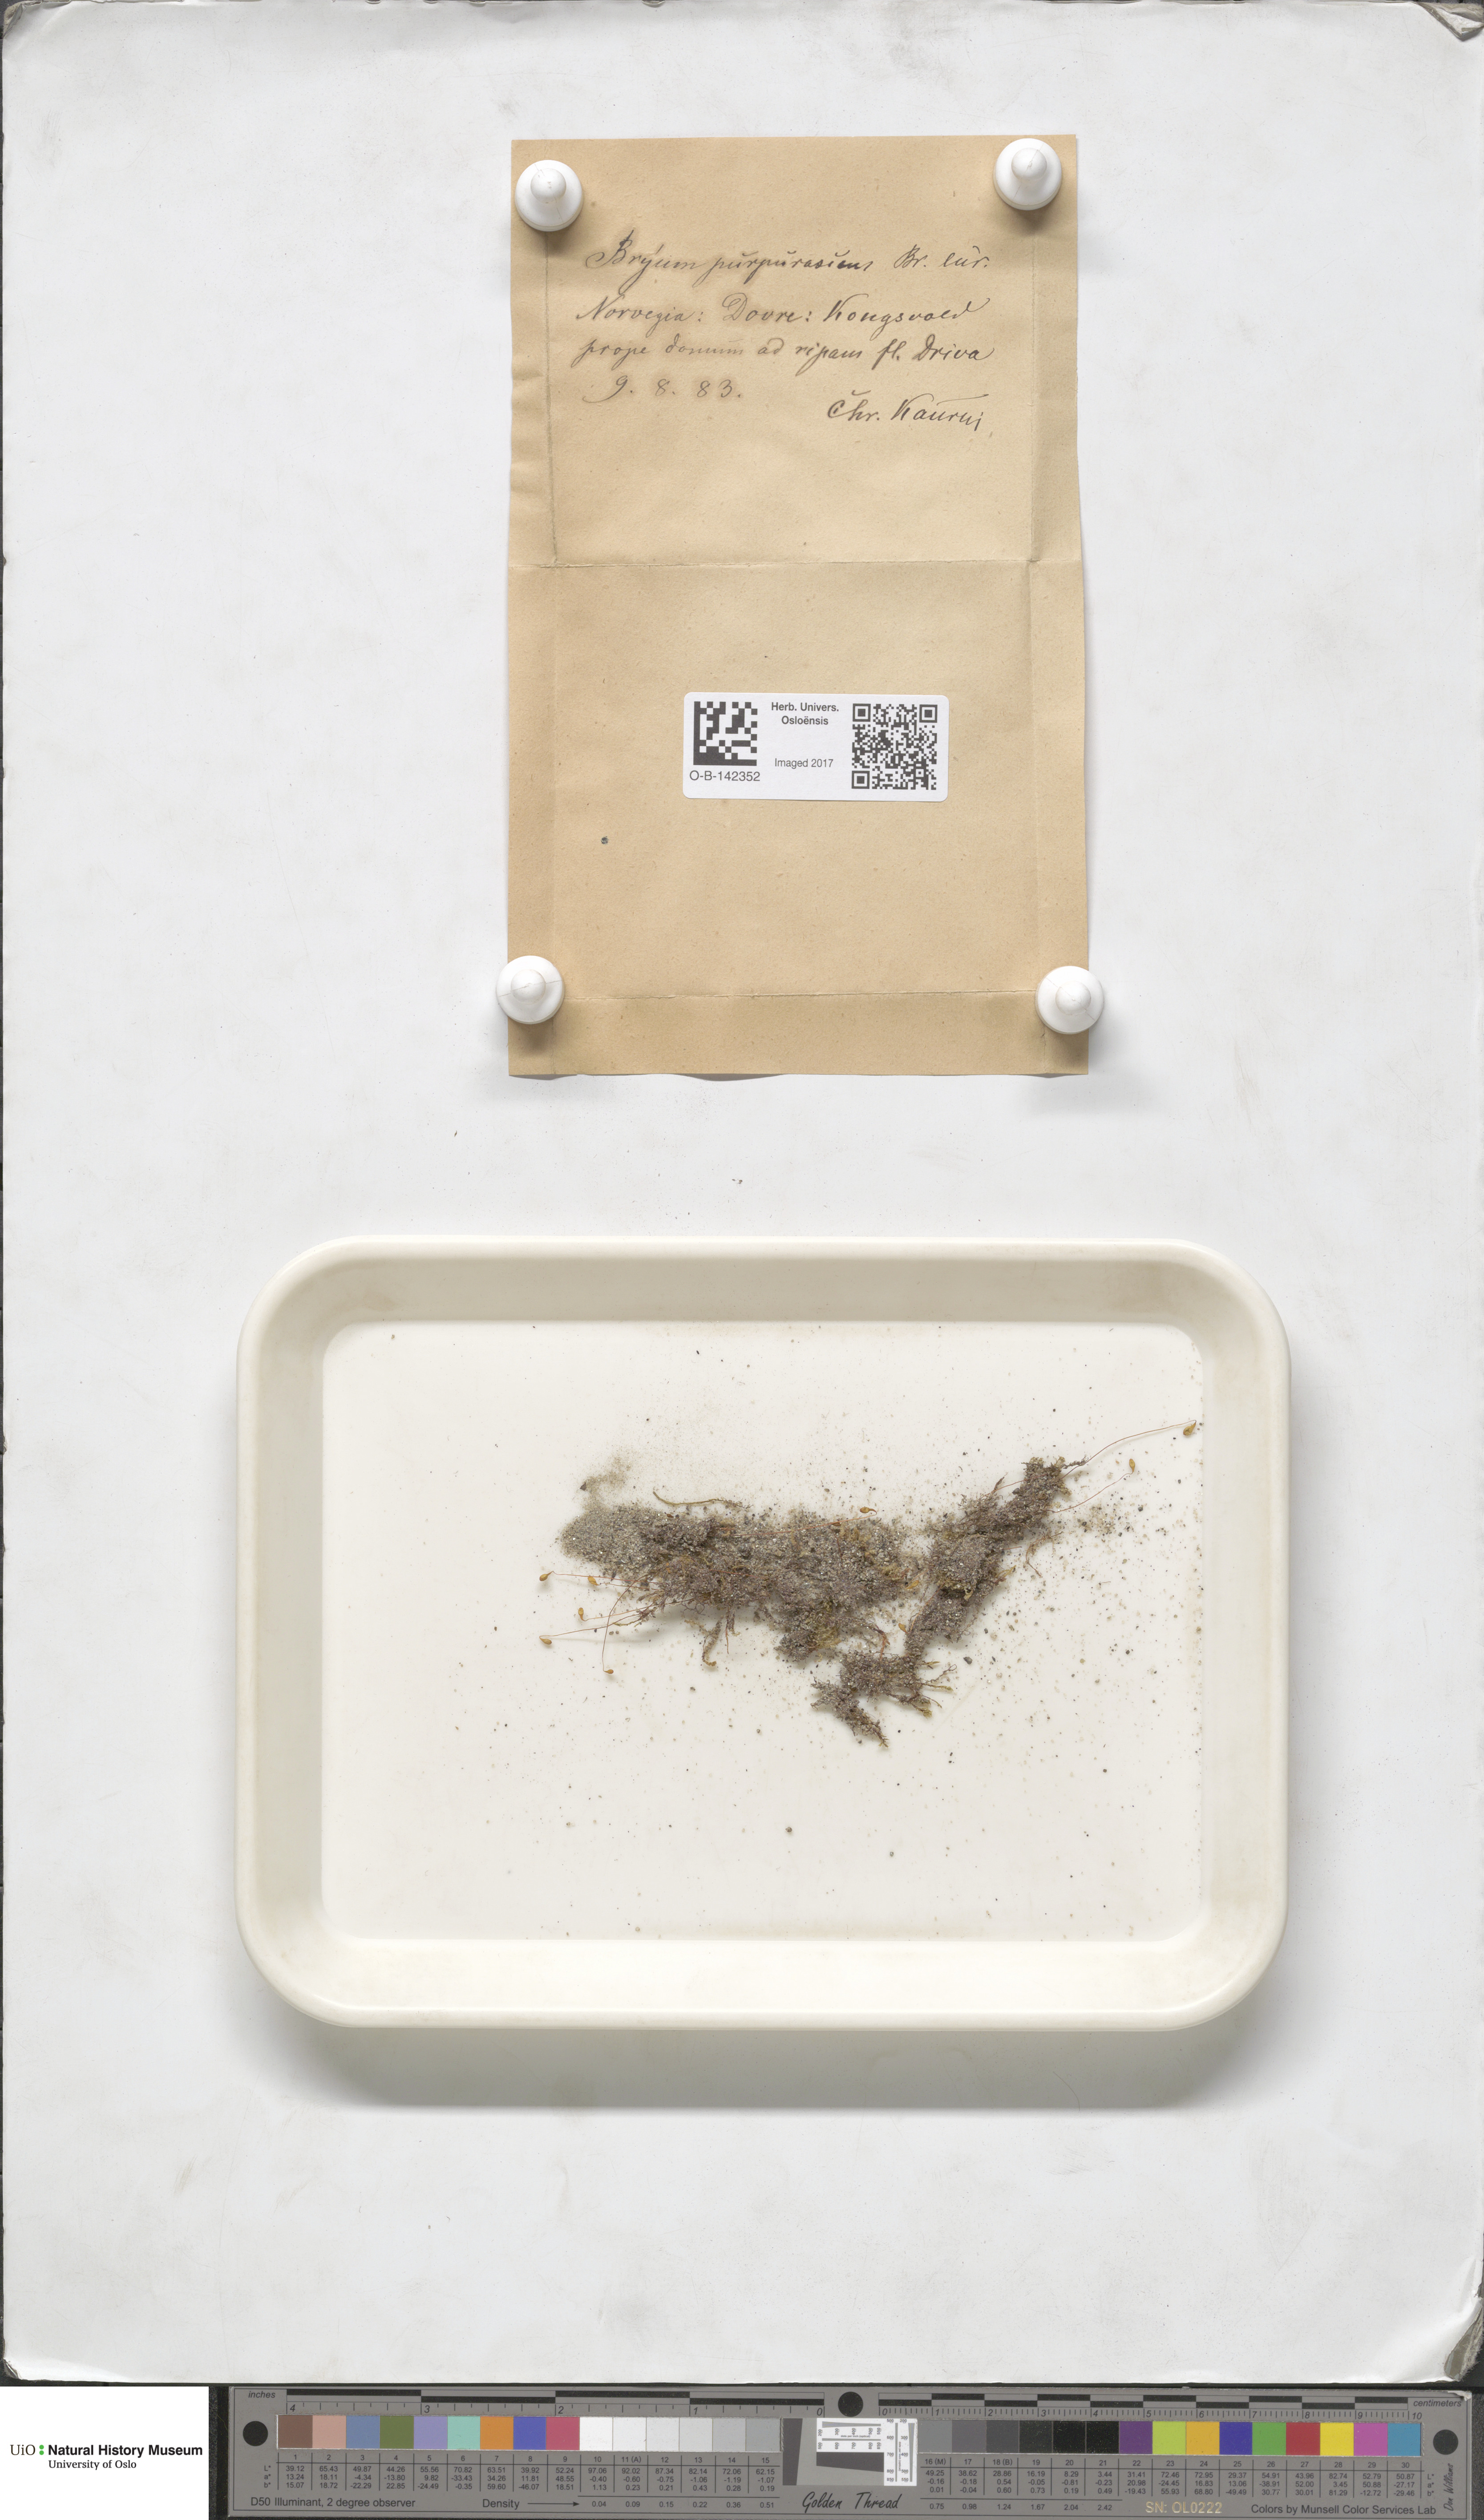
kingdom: Plantae
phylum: Bryophyta
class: Bryopsida
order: Bryales
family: Bryaceae
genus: Ptychostomum
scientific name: Ptychostomum arcticum
